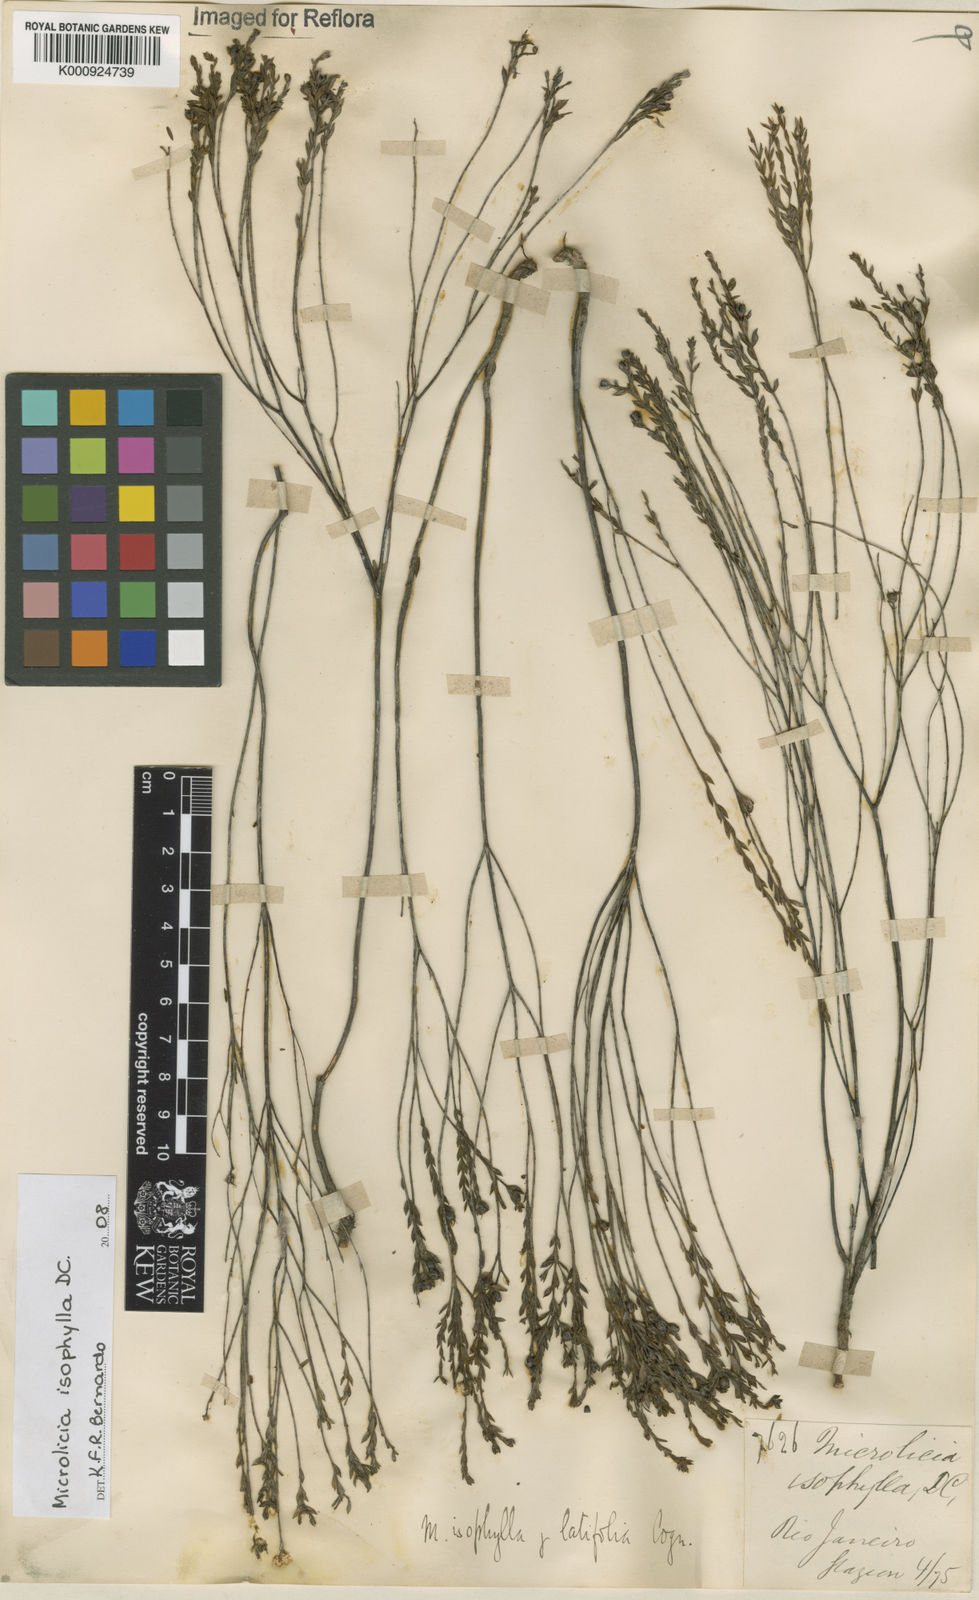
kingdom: Plantae
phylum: Tracheophyta
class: Magnoliopsida
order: Myrtales
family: Melastomataceae
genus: Microlicia
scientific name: Microlicia isophylla
